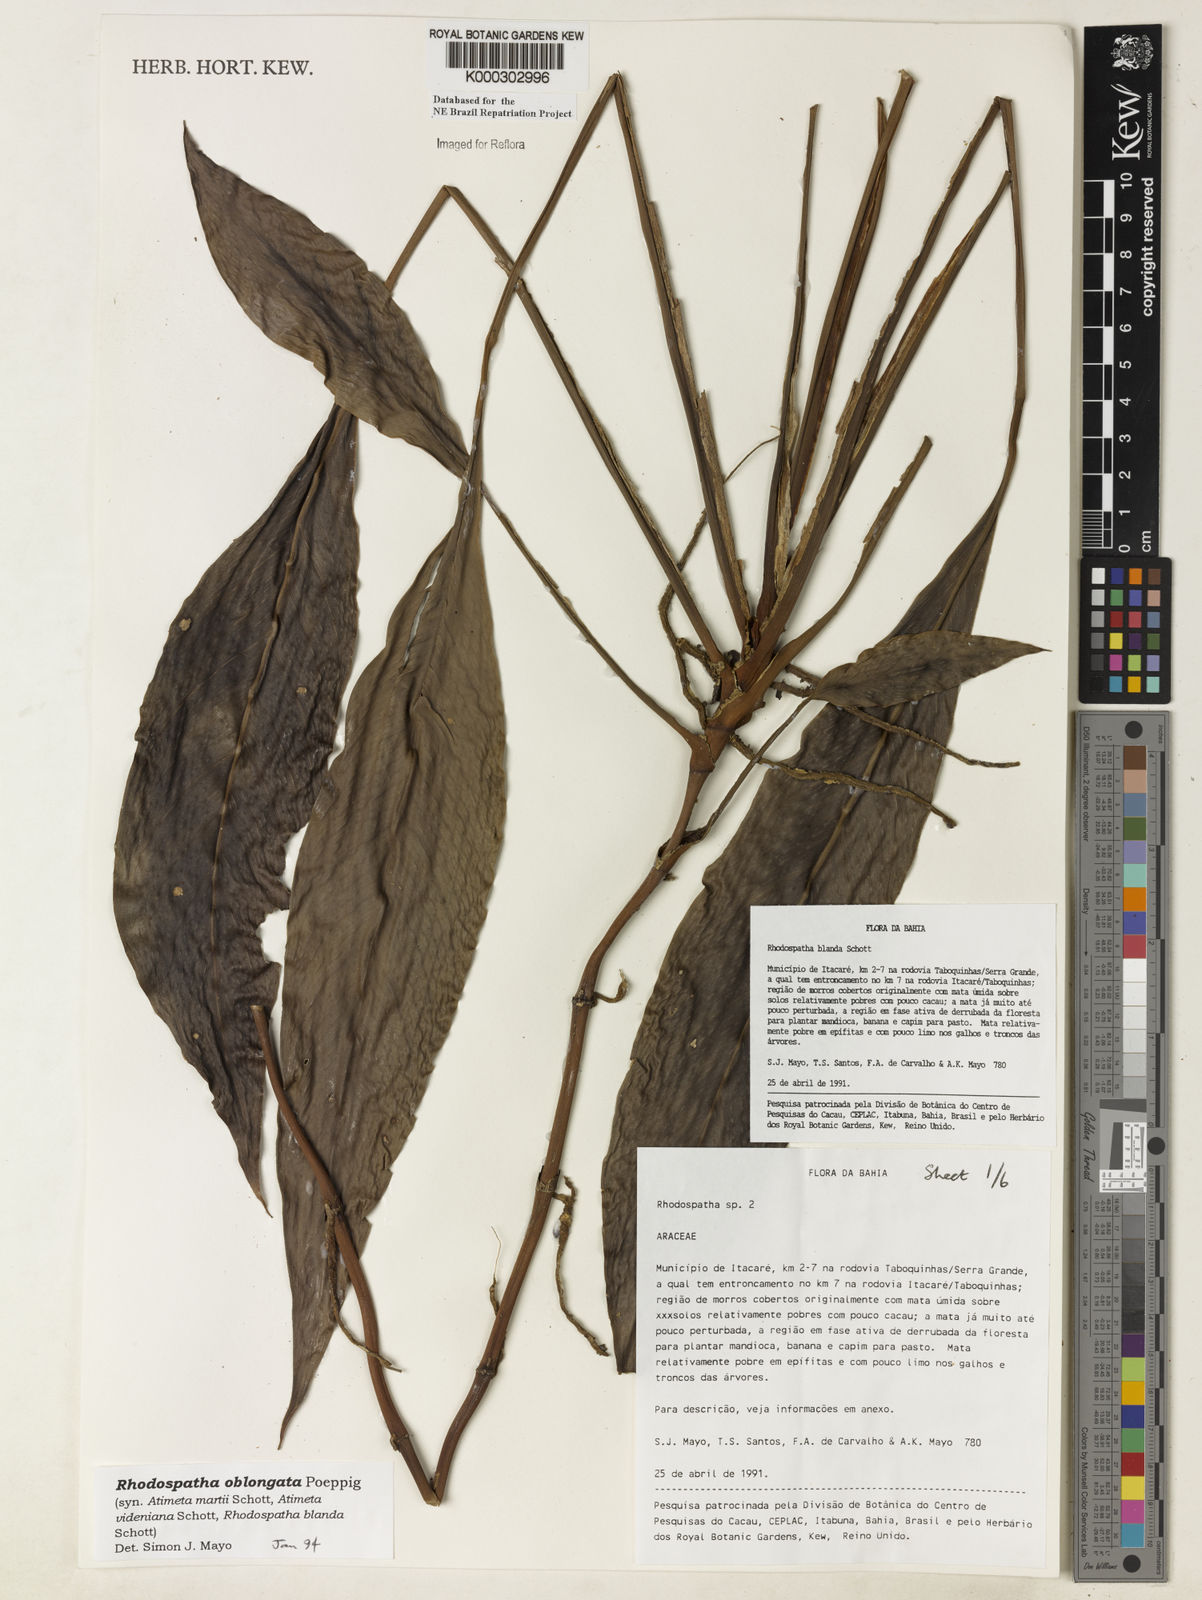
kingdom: Plantae
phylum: Tracheophyta
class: Liliopsida
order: Alismatales
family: Araceae
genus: Rhodospatha
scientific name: Rhodospatha oblongata
